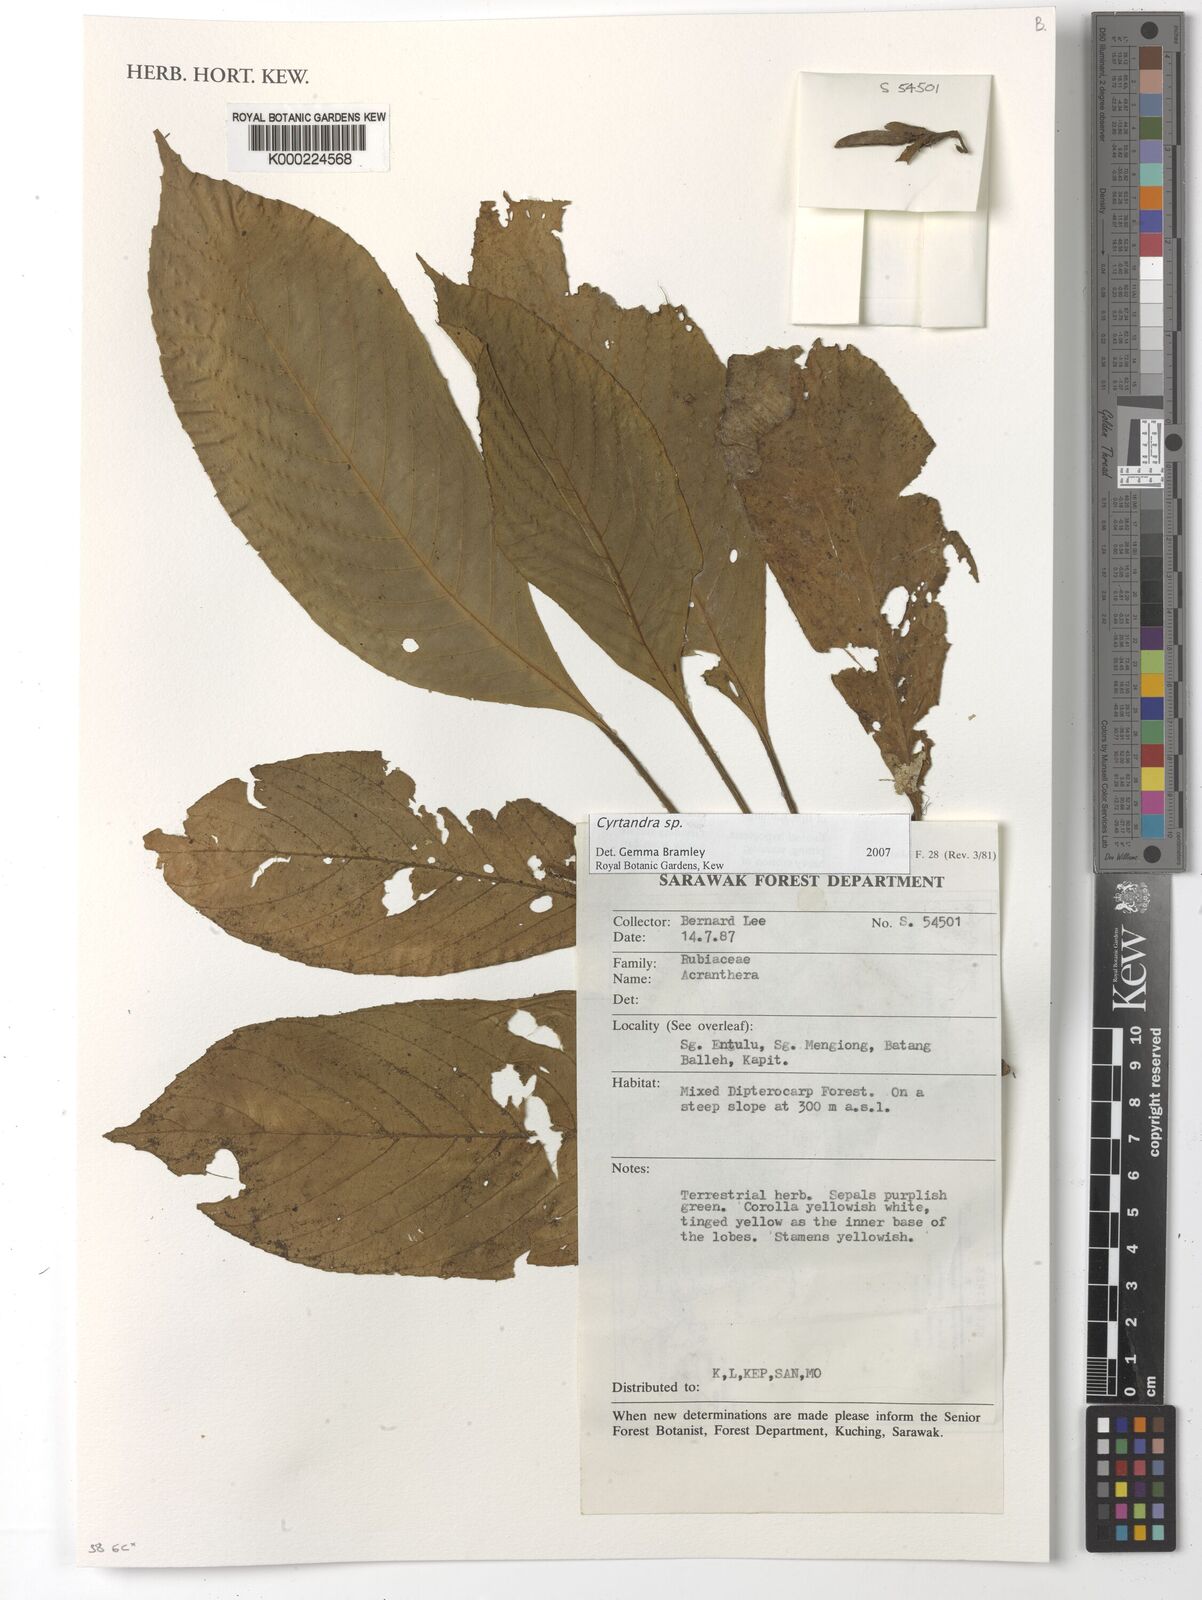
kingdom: Plantae
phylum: Tracheophyta
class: Magnoliopsida
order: Lamiales
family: Gesneriaceae
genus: Cyrtandra
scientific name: Cyrtandra
